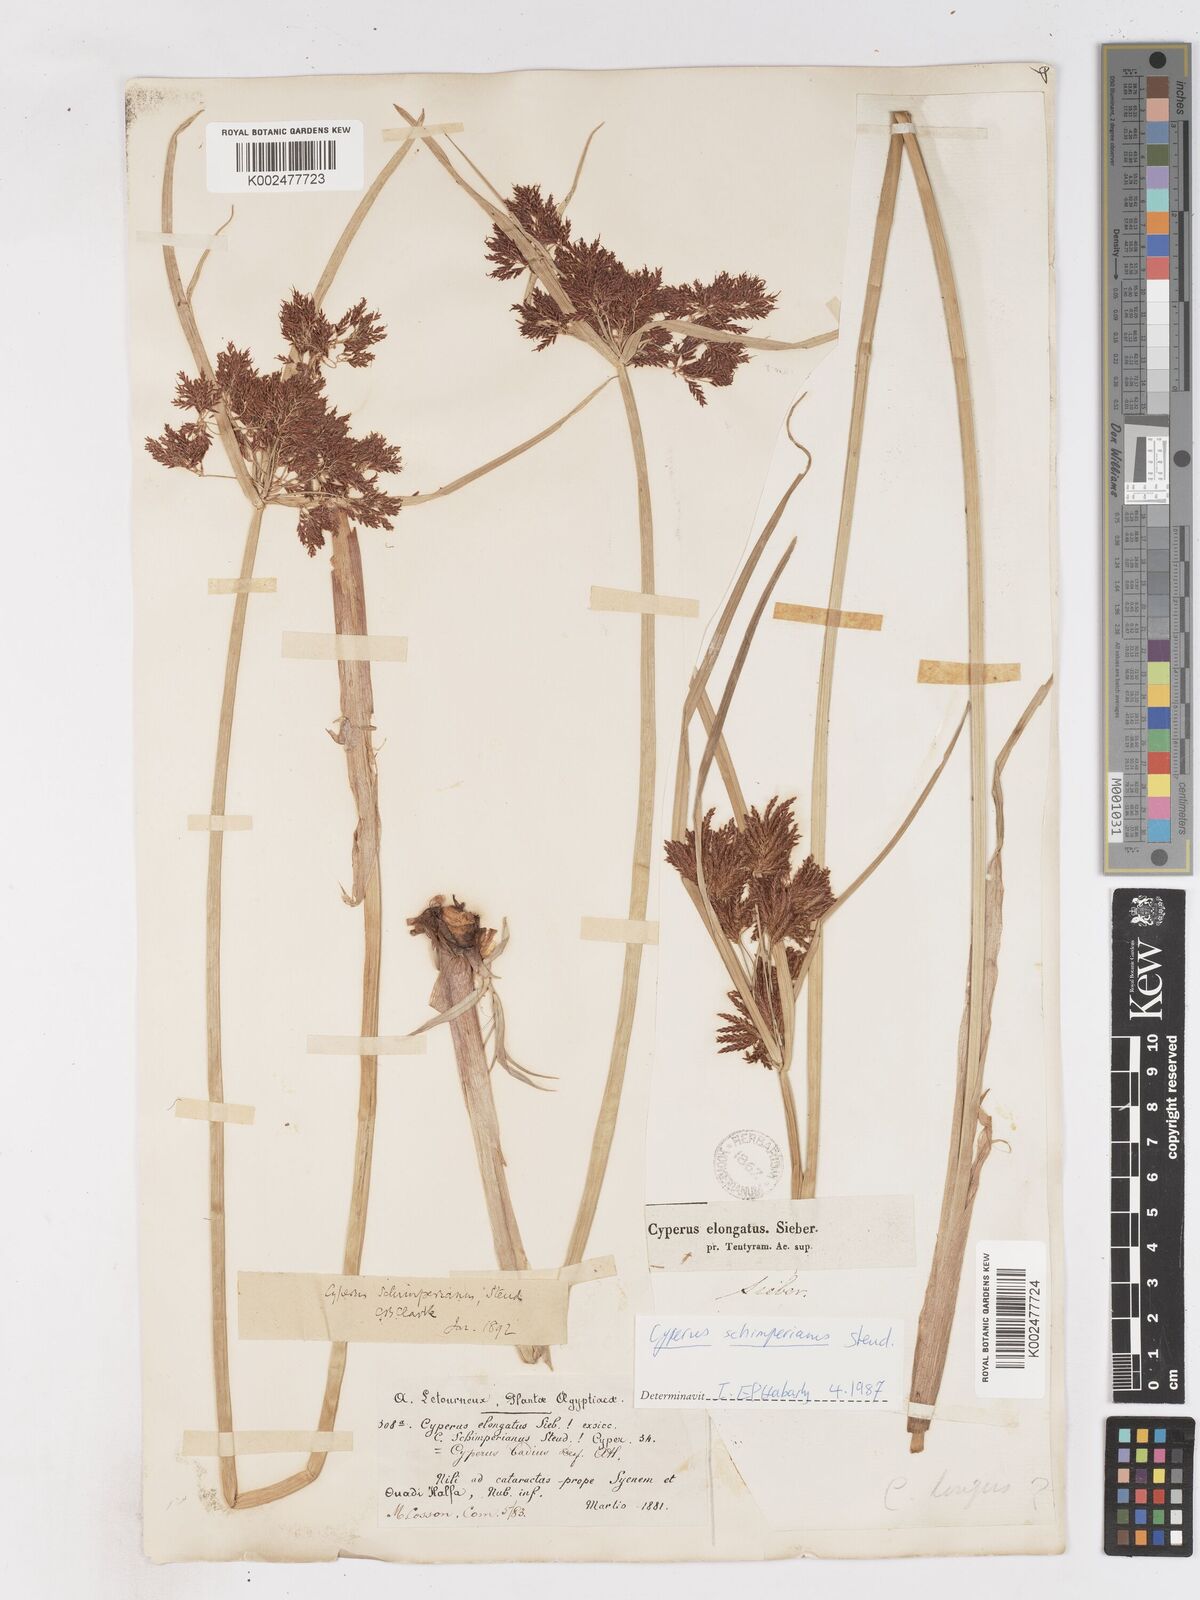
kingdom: Plantae
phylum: Tracheophyta
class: Liliopsida
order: Poales
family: Cyperaceae
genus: Cyperus
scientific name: Cyperus schimperianus
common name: Schimper flatsedge
